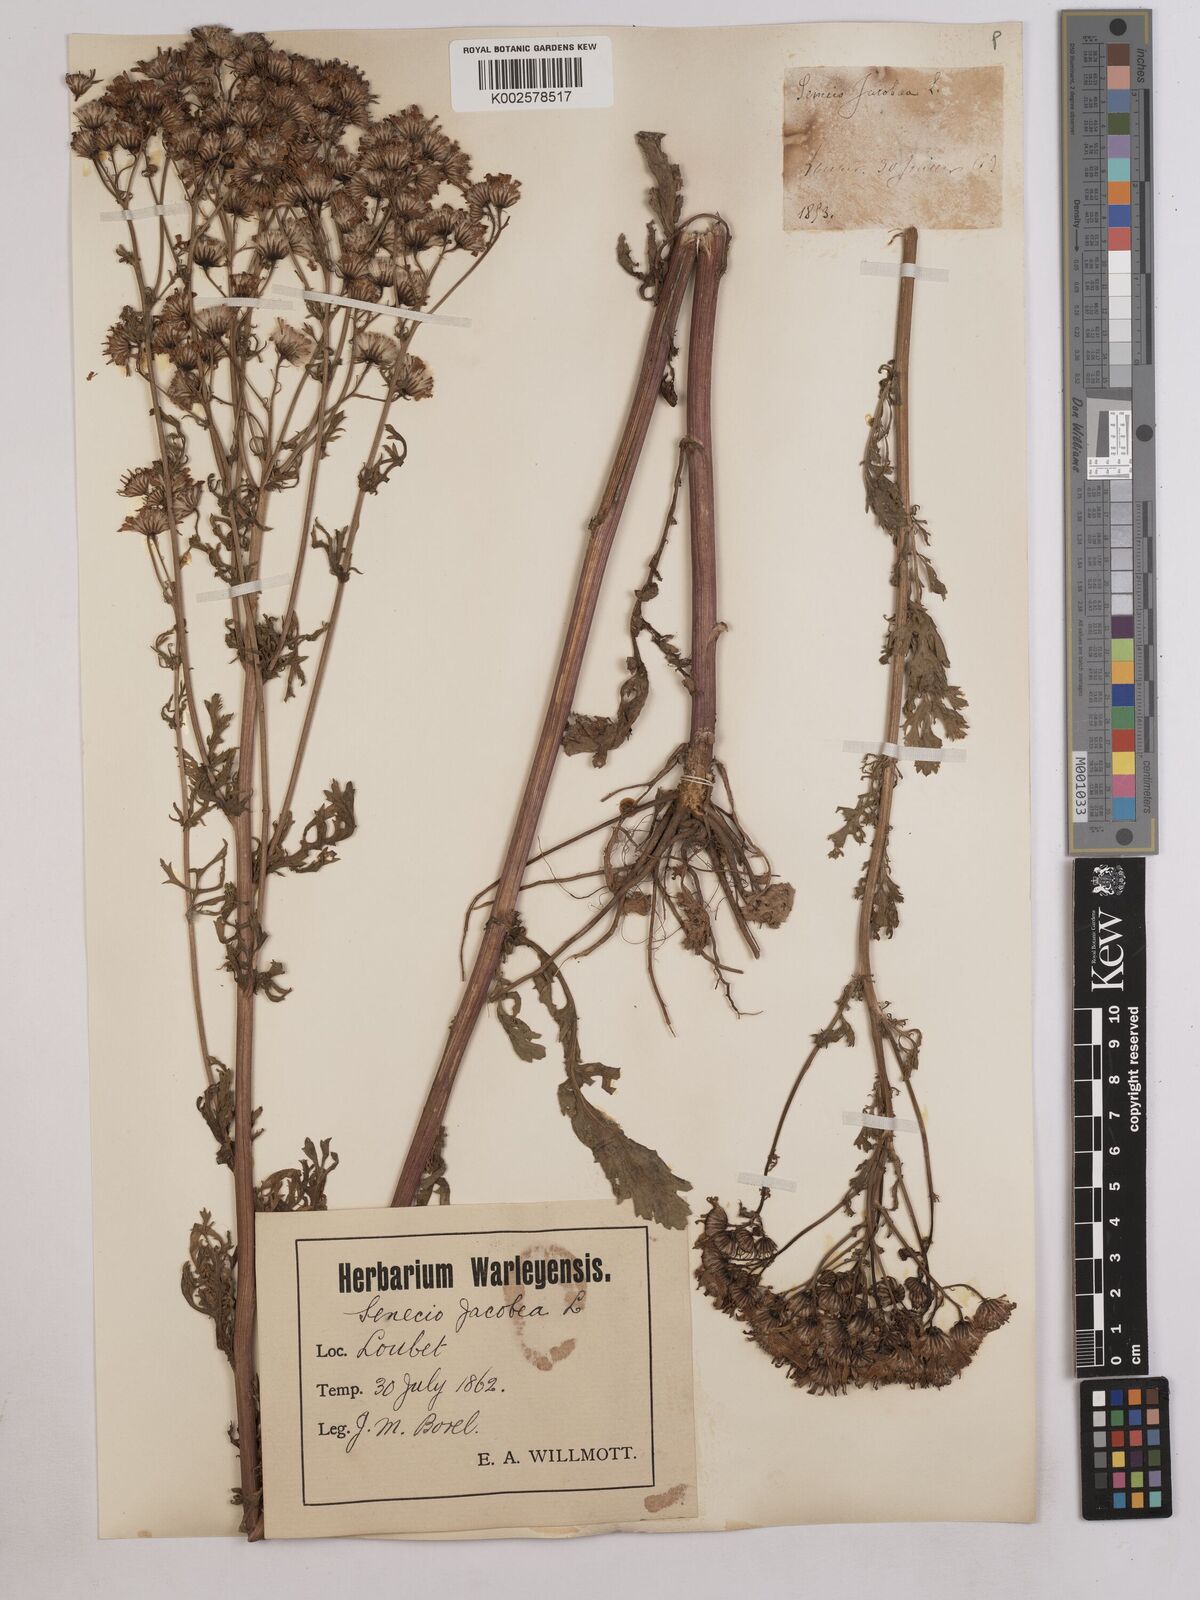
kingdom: Plantae
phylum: Tracheophyta
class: Magnoliopsida
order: Asterales
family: Asteraceae
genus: Jacobaea
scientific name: Jacobaea vulgaris
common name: Stinking willie
